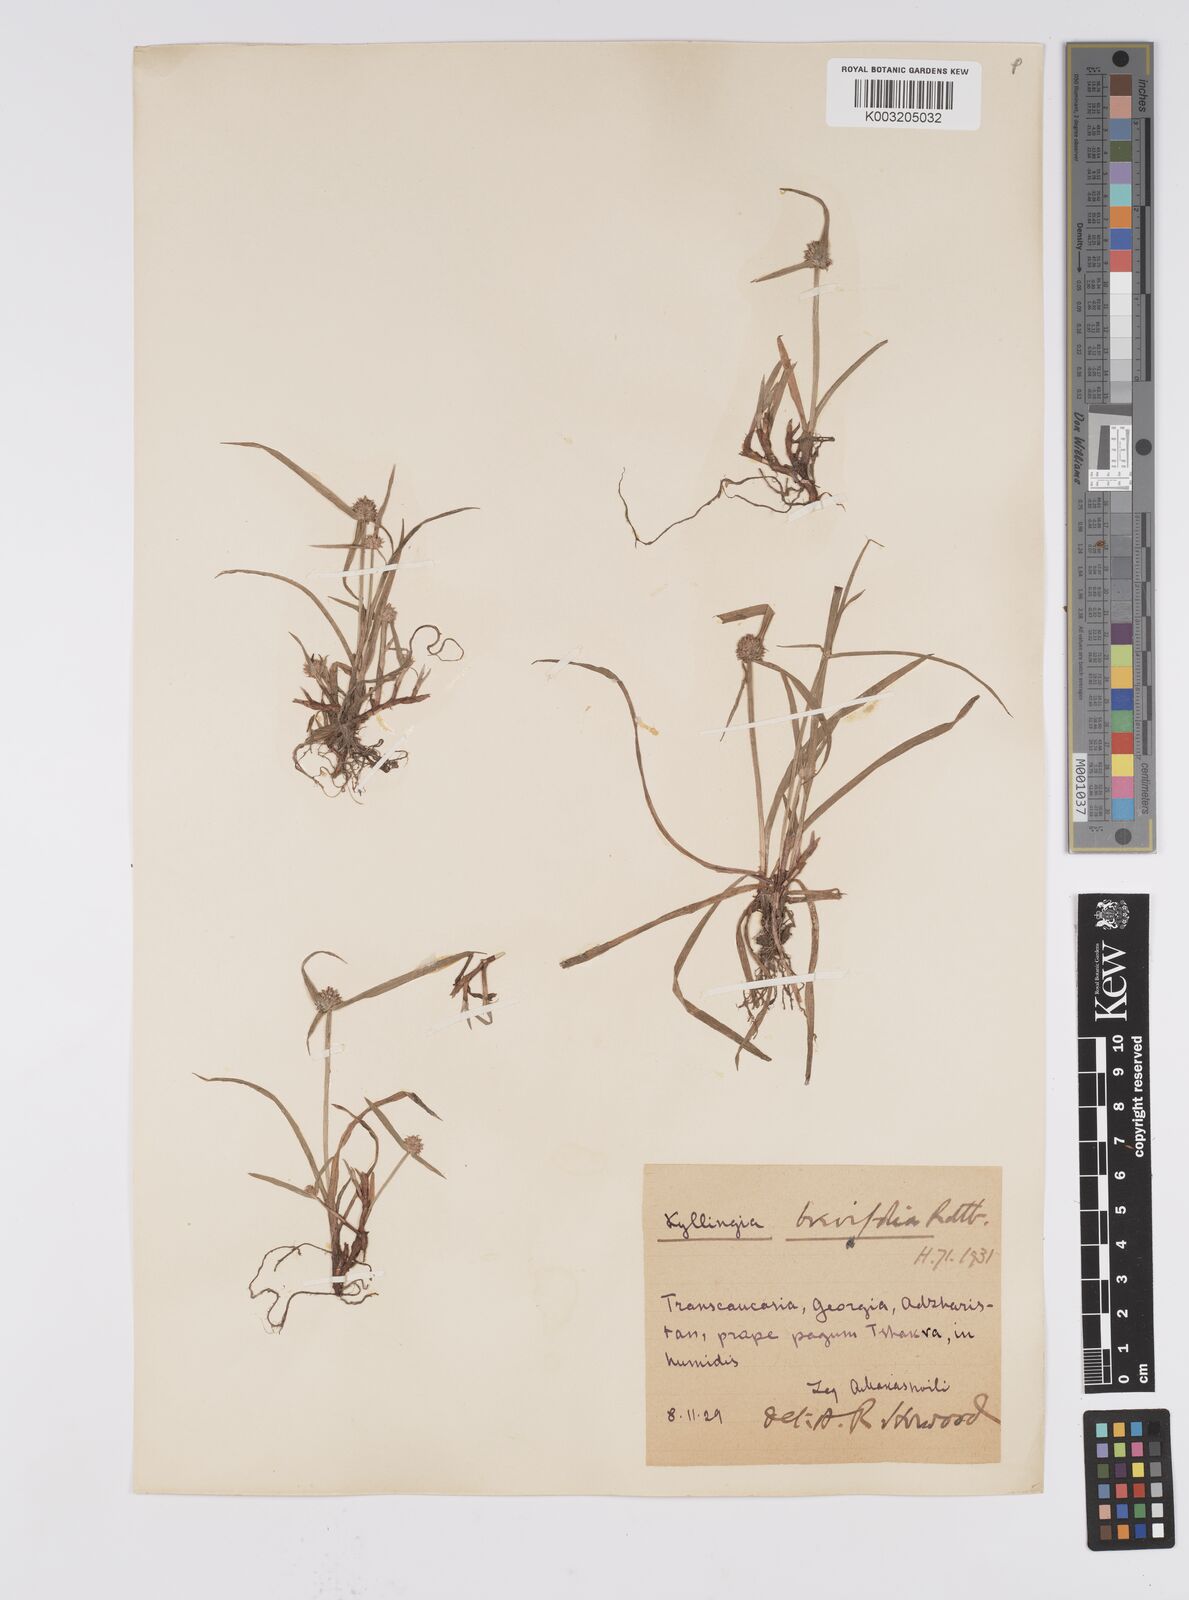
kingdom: Plantae
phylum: Tracheophyta
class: Liliopsida
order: Poales
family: Cyperaceae
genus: Cyperus
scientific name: Cyperus brevifolius
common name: Globe kyllinga
